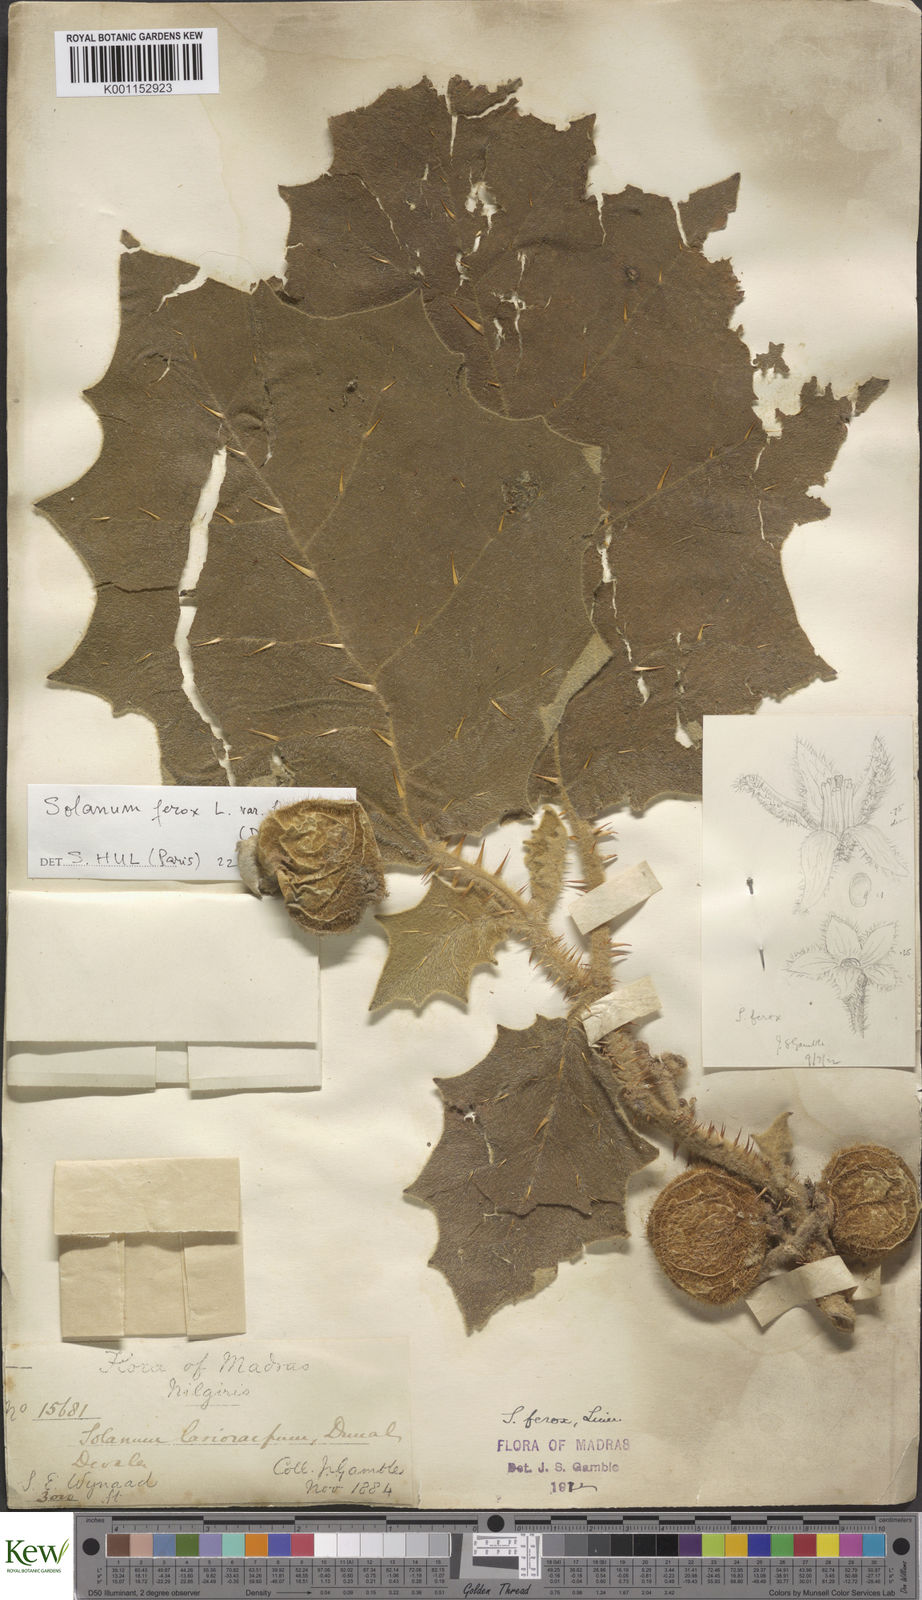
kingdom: Plantae
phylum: Tracheophyta
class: Magnoliopsida
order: Solanales
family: Solanaceae
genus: Solanum
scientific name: Solanum
